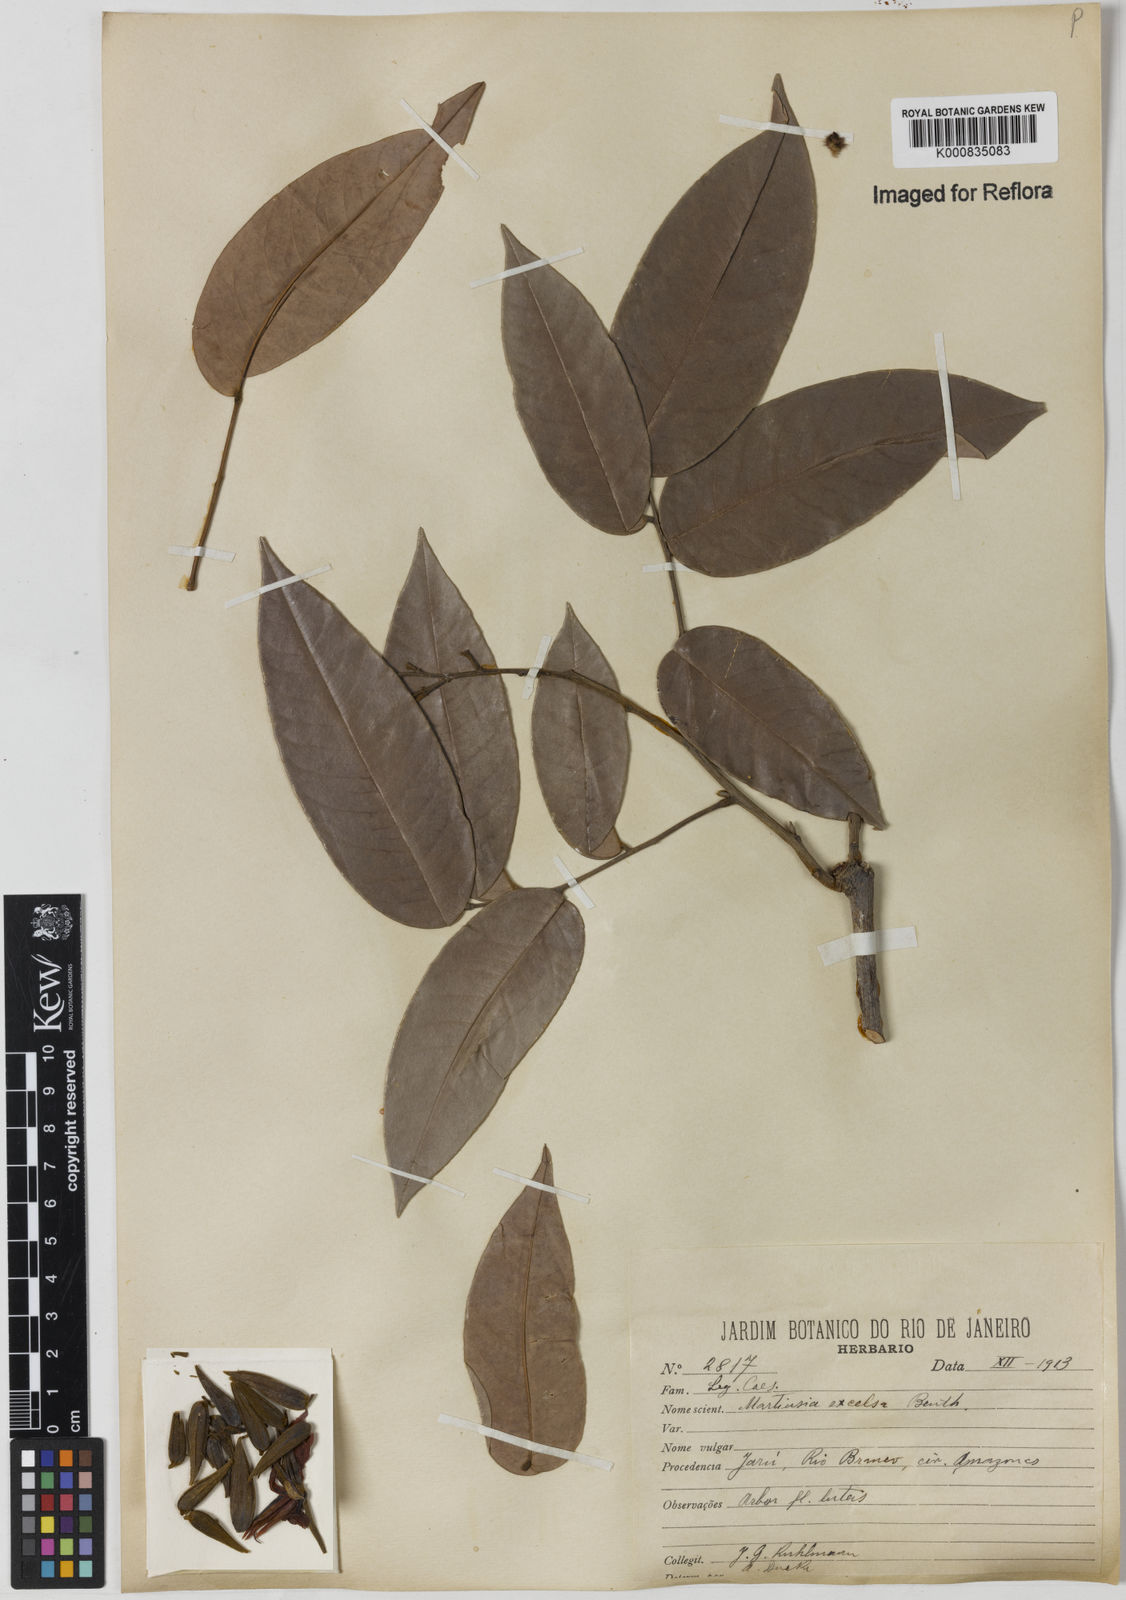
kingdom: Plantae
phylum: Tracheophyta
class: Magnoliopsida
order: Fabales
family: Fabaceae
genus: Martiodendron
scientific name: Martiodendron excelsum
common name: Tatabuballi
